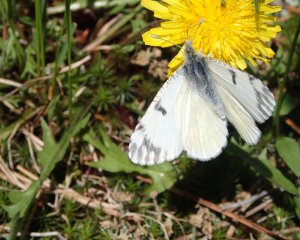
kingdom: Animalia
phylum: Arthropoda
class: Insecta
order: Lepidoptera
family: Pieridae
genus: Euchloe
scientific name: Euchloe ausonides
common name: Large Marble
